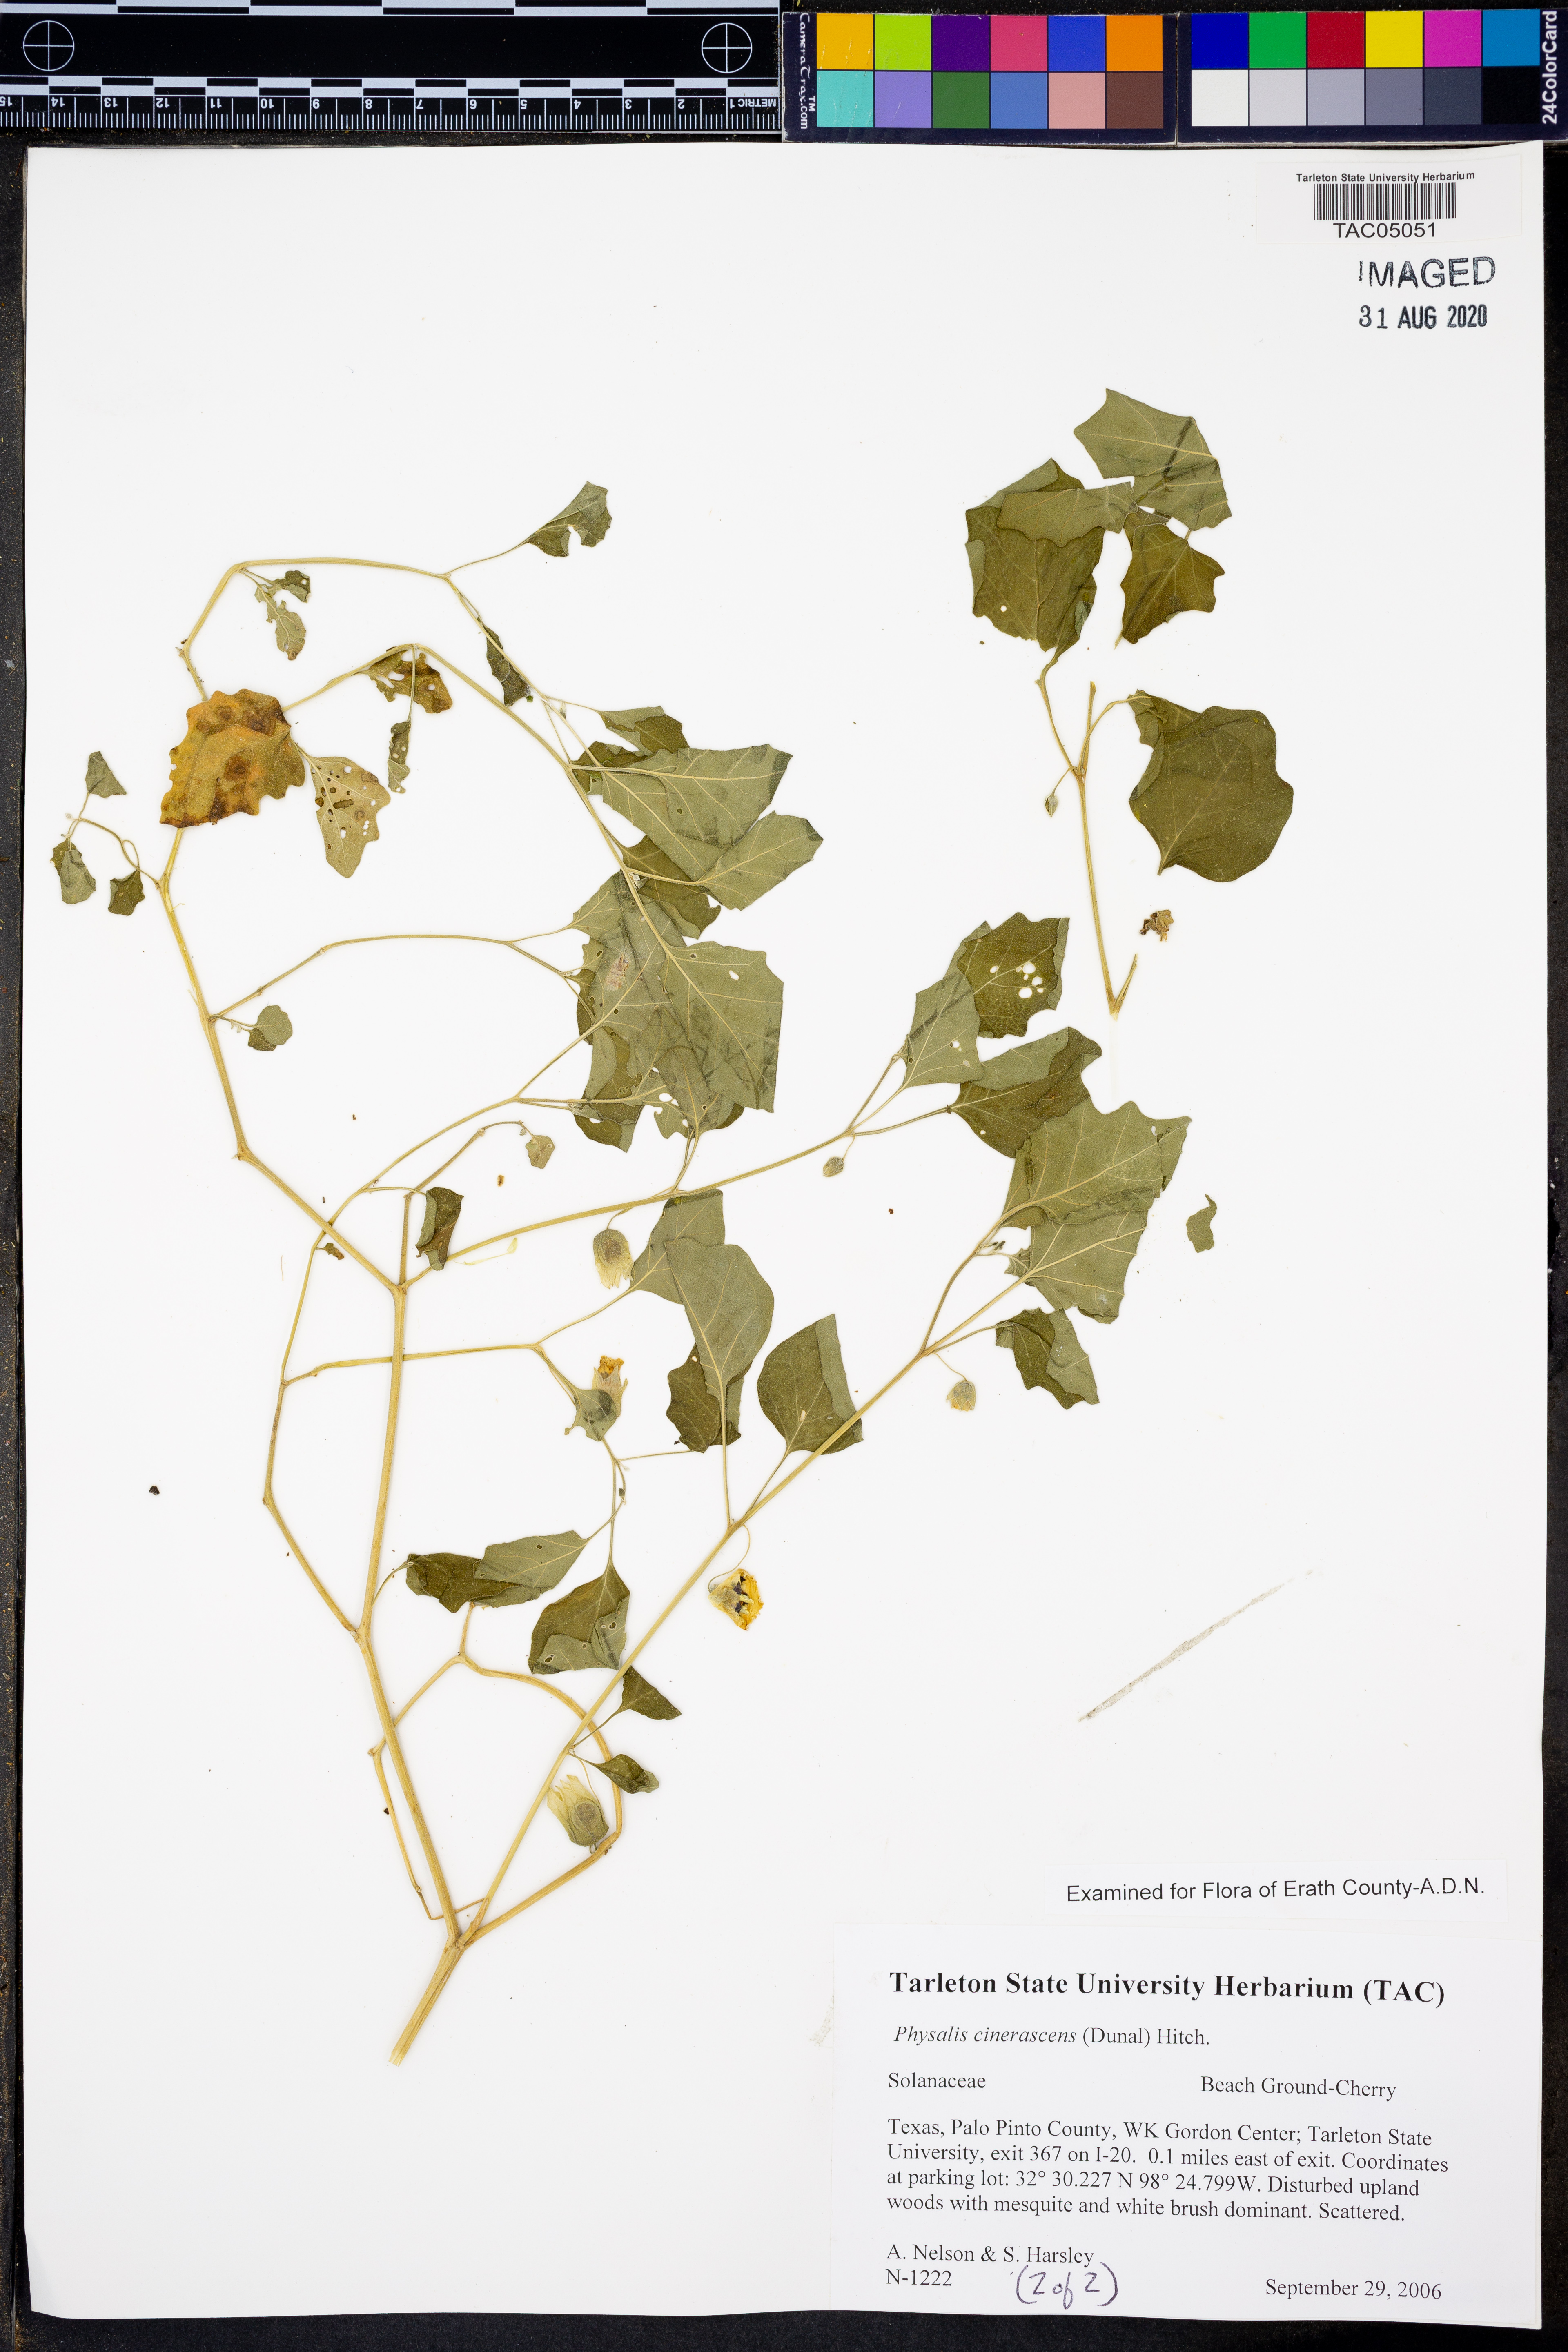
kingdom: Plantae
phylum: Tracheophyta
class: Magnoliopsida
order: Solanales
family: Solanaceae
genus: Physalis
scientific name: Physalis cinerascens
